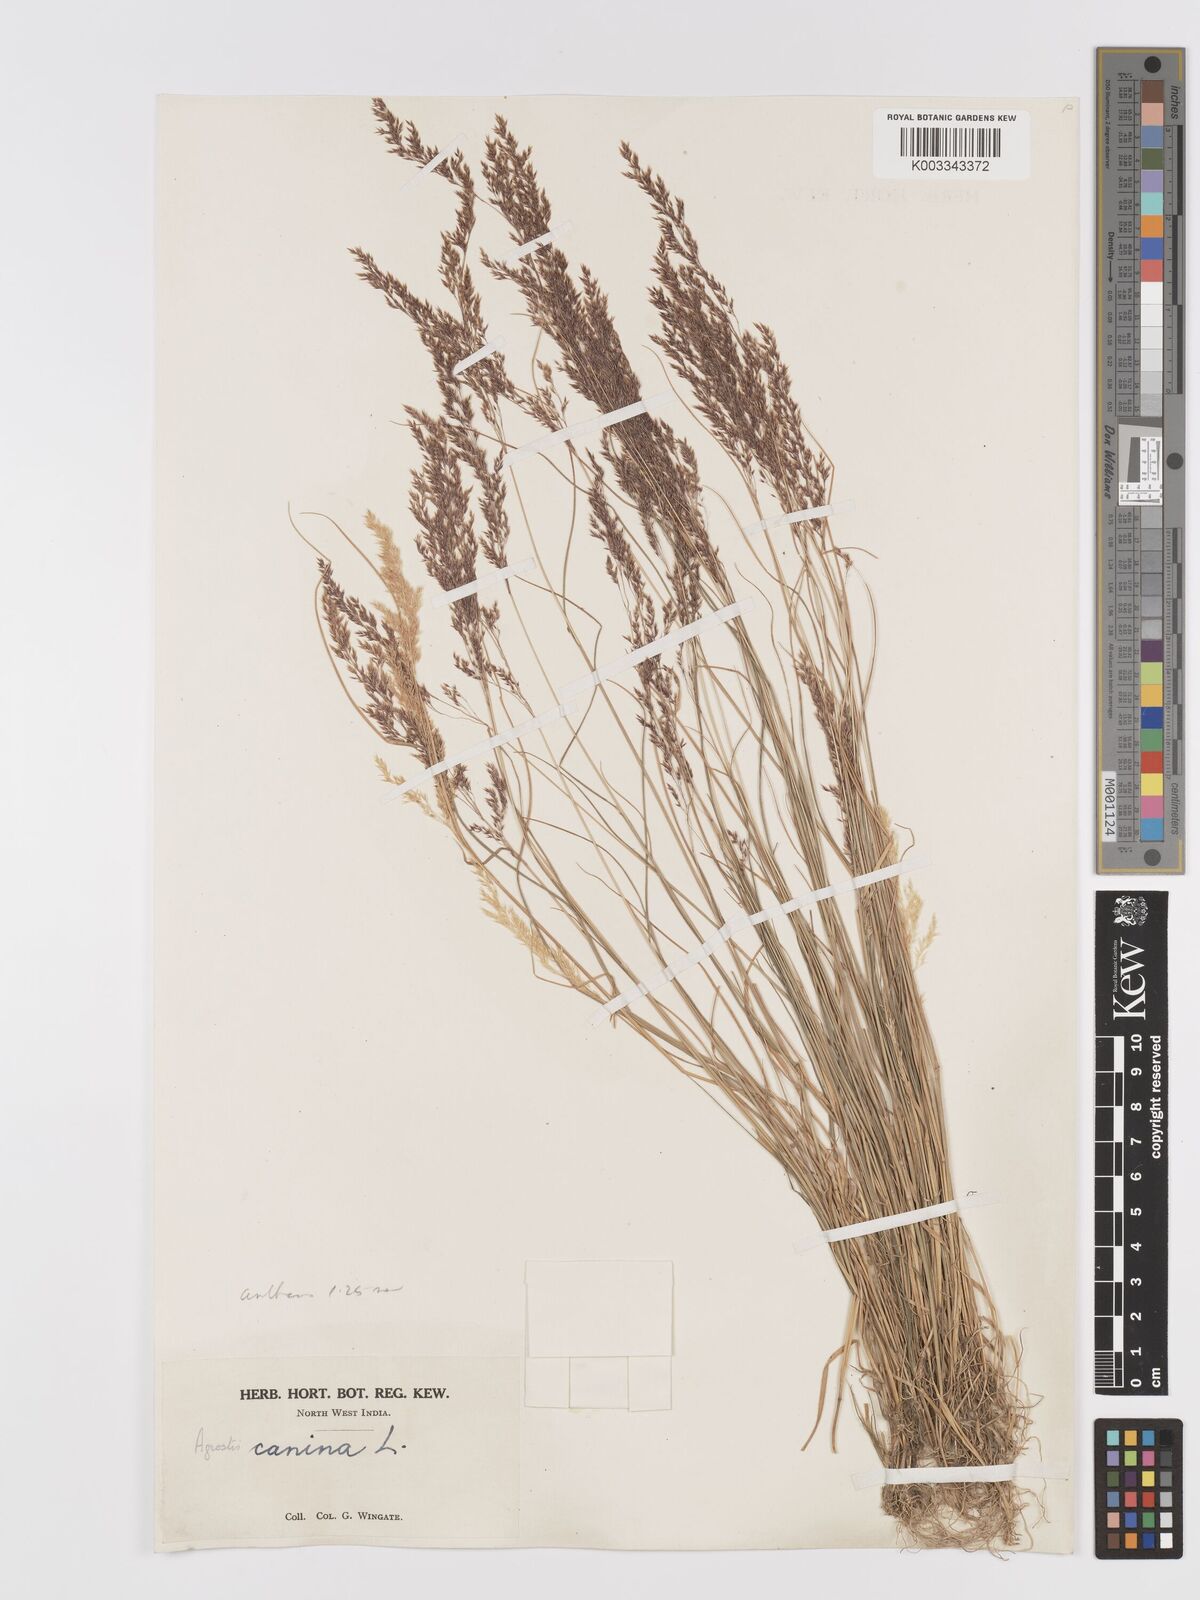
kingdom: Plantae
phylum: Tracheophyta
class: Liliopsida
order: Poales
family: Poaceae
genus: Agrostis
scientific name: Agrostis
